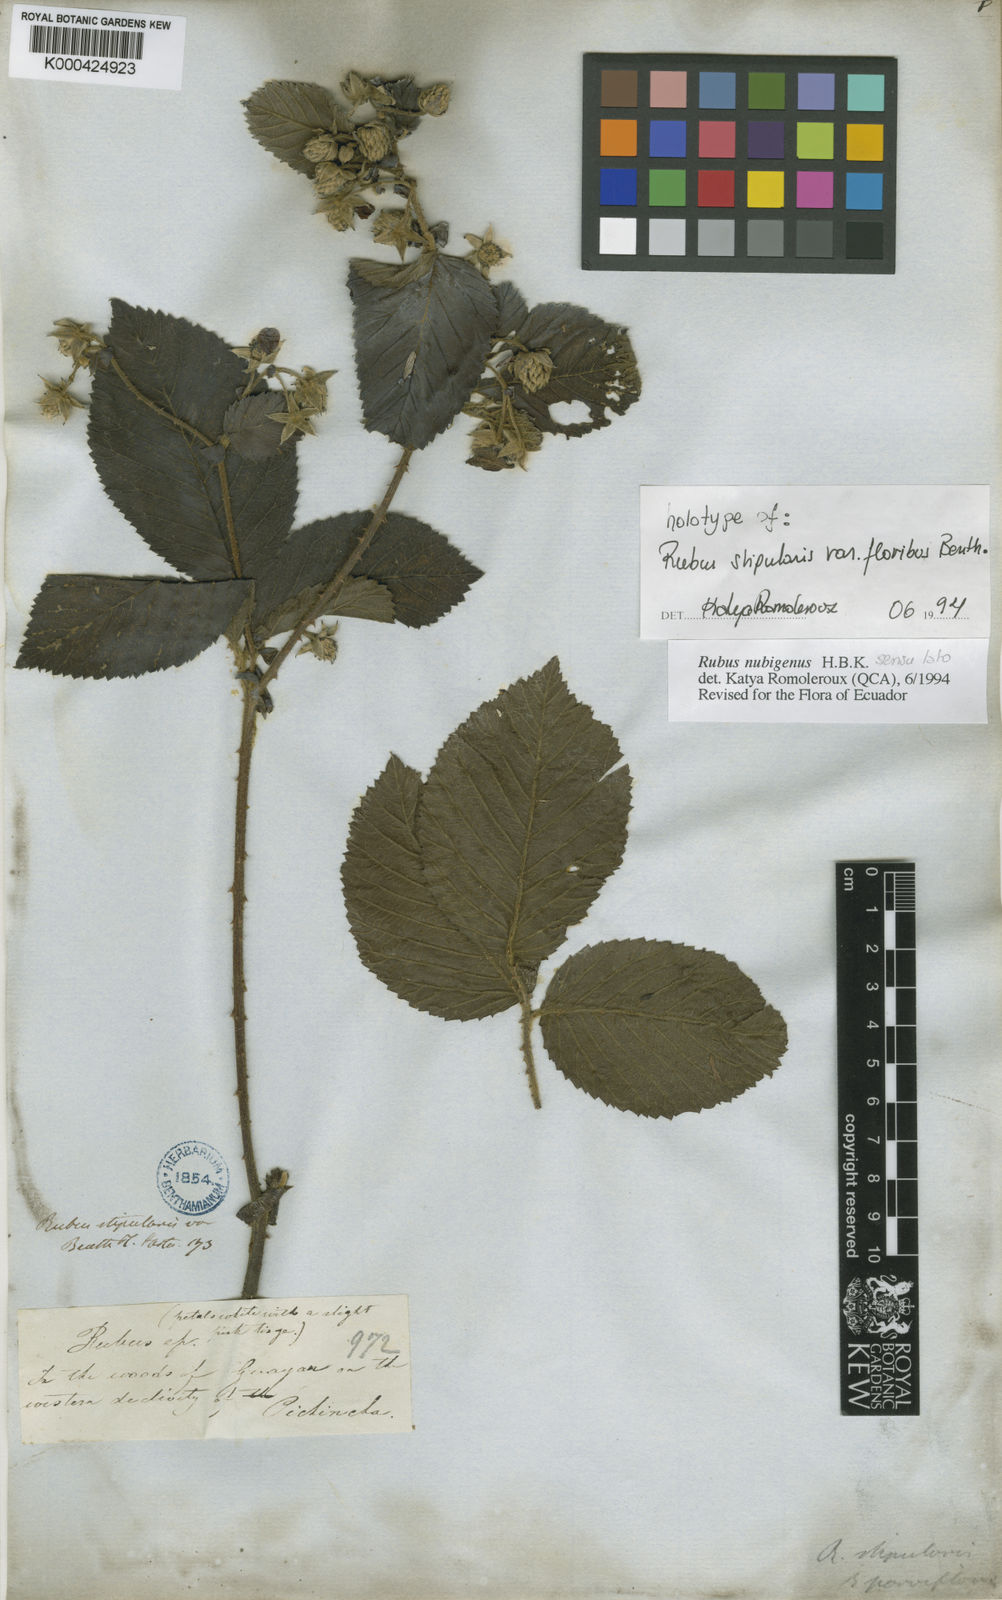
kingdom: Plantae
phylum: Tracheophyta
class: Magnoliopsida
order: Rosales
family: Rosaceae
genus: Rubus
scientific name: Rubus nubigenus
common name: Giant colombian blackberry
